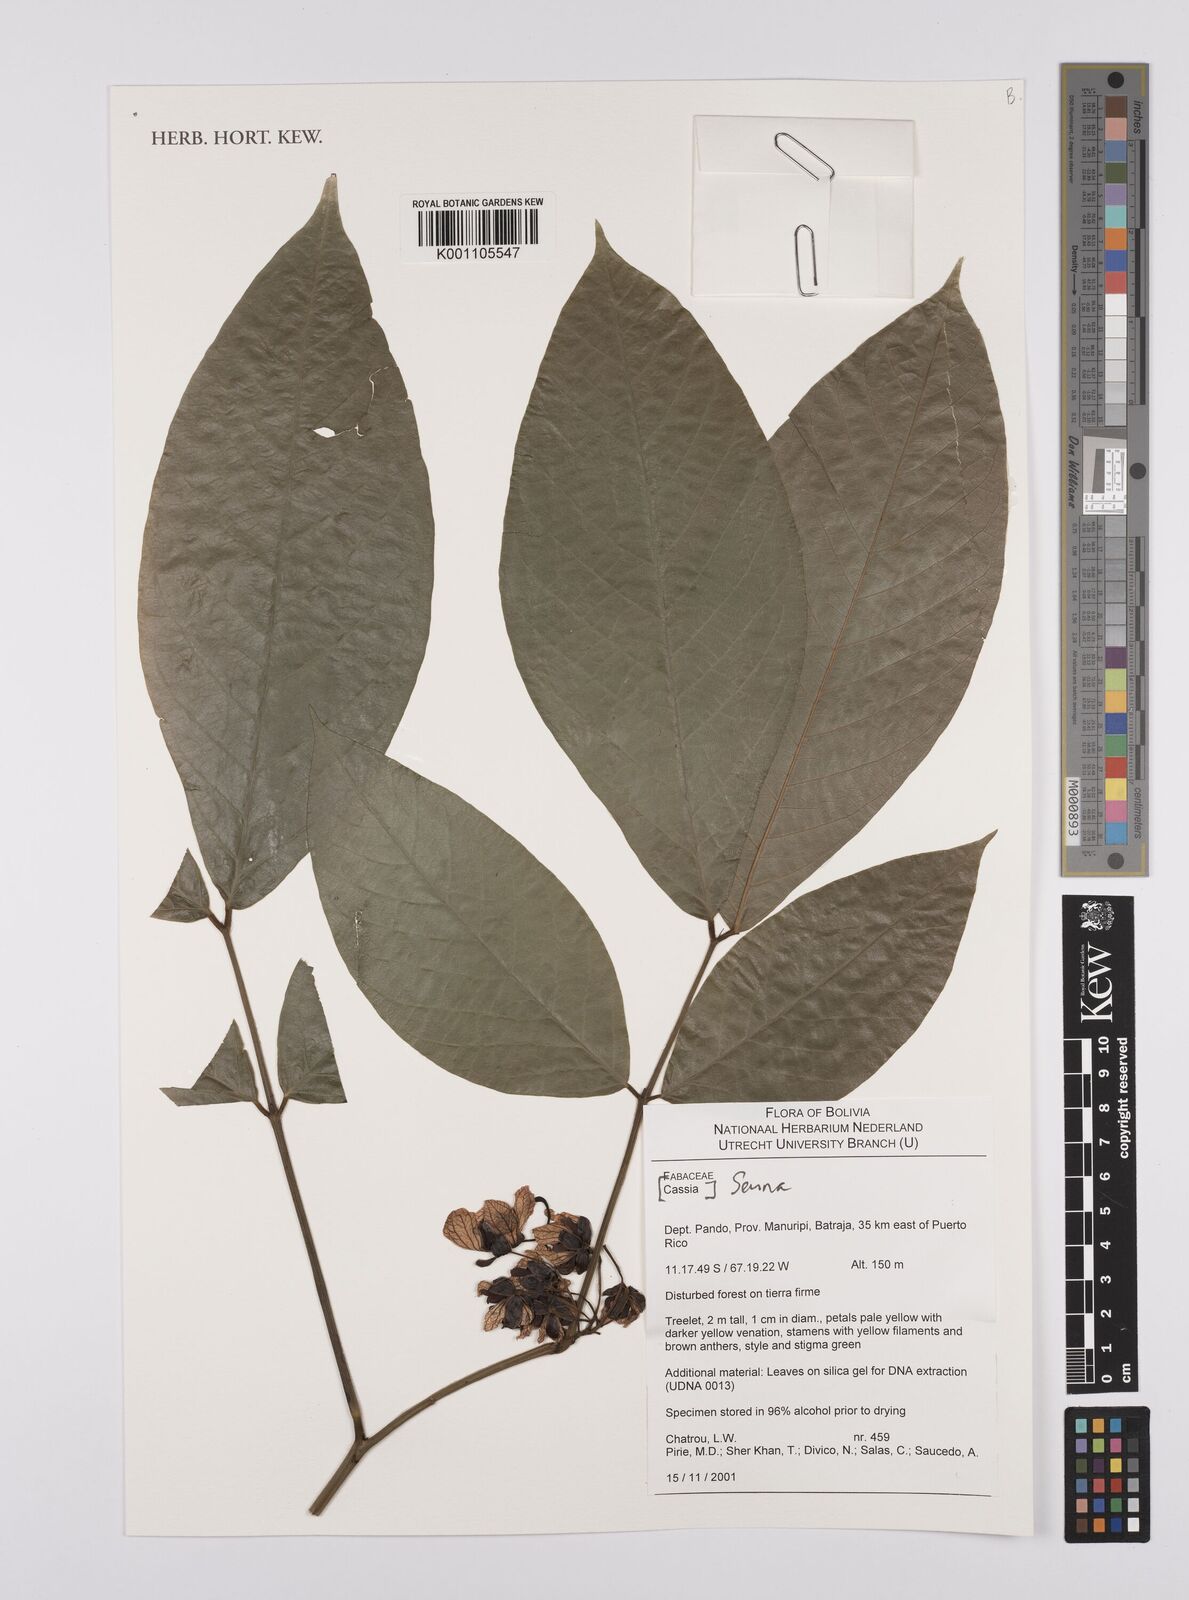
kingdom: Plantae
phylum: Tracheophyta
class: Magnoliopsida
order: Fabales
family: Fabaceae
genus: Senna
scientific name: Senna
